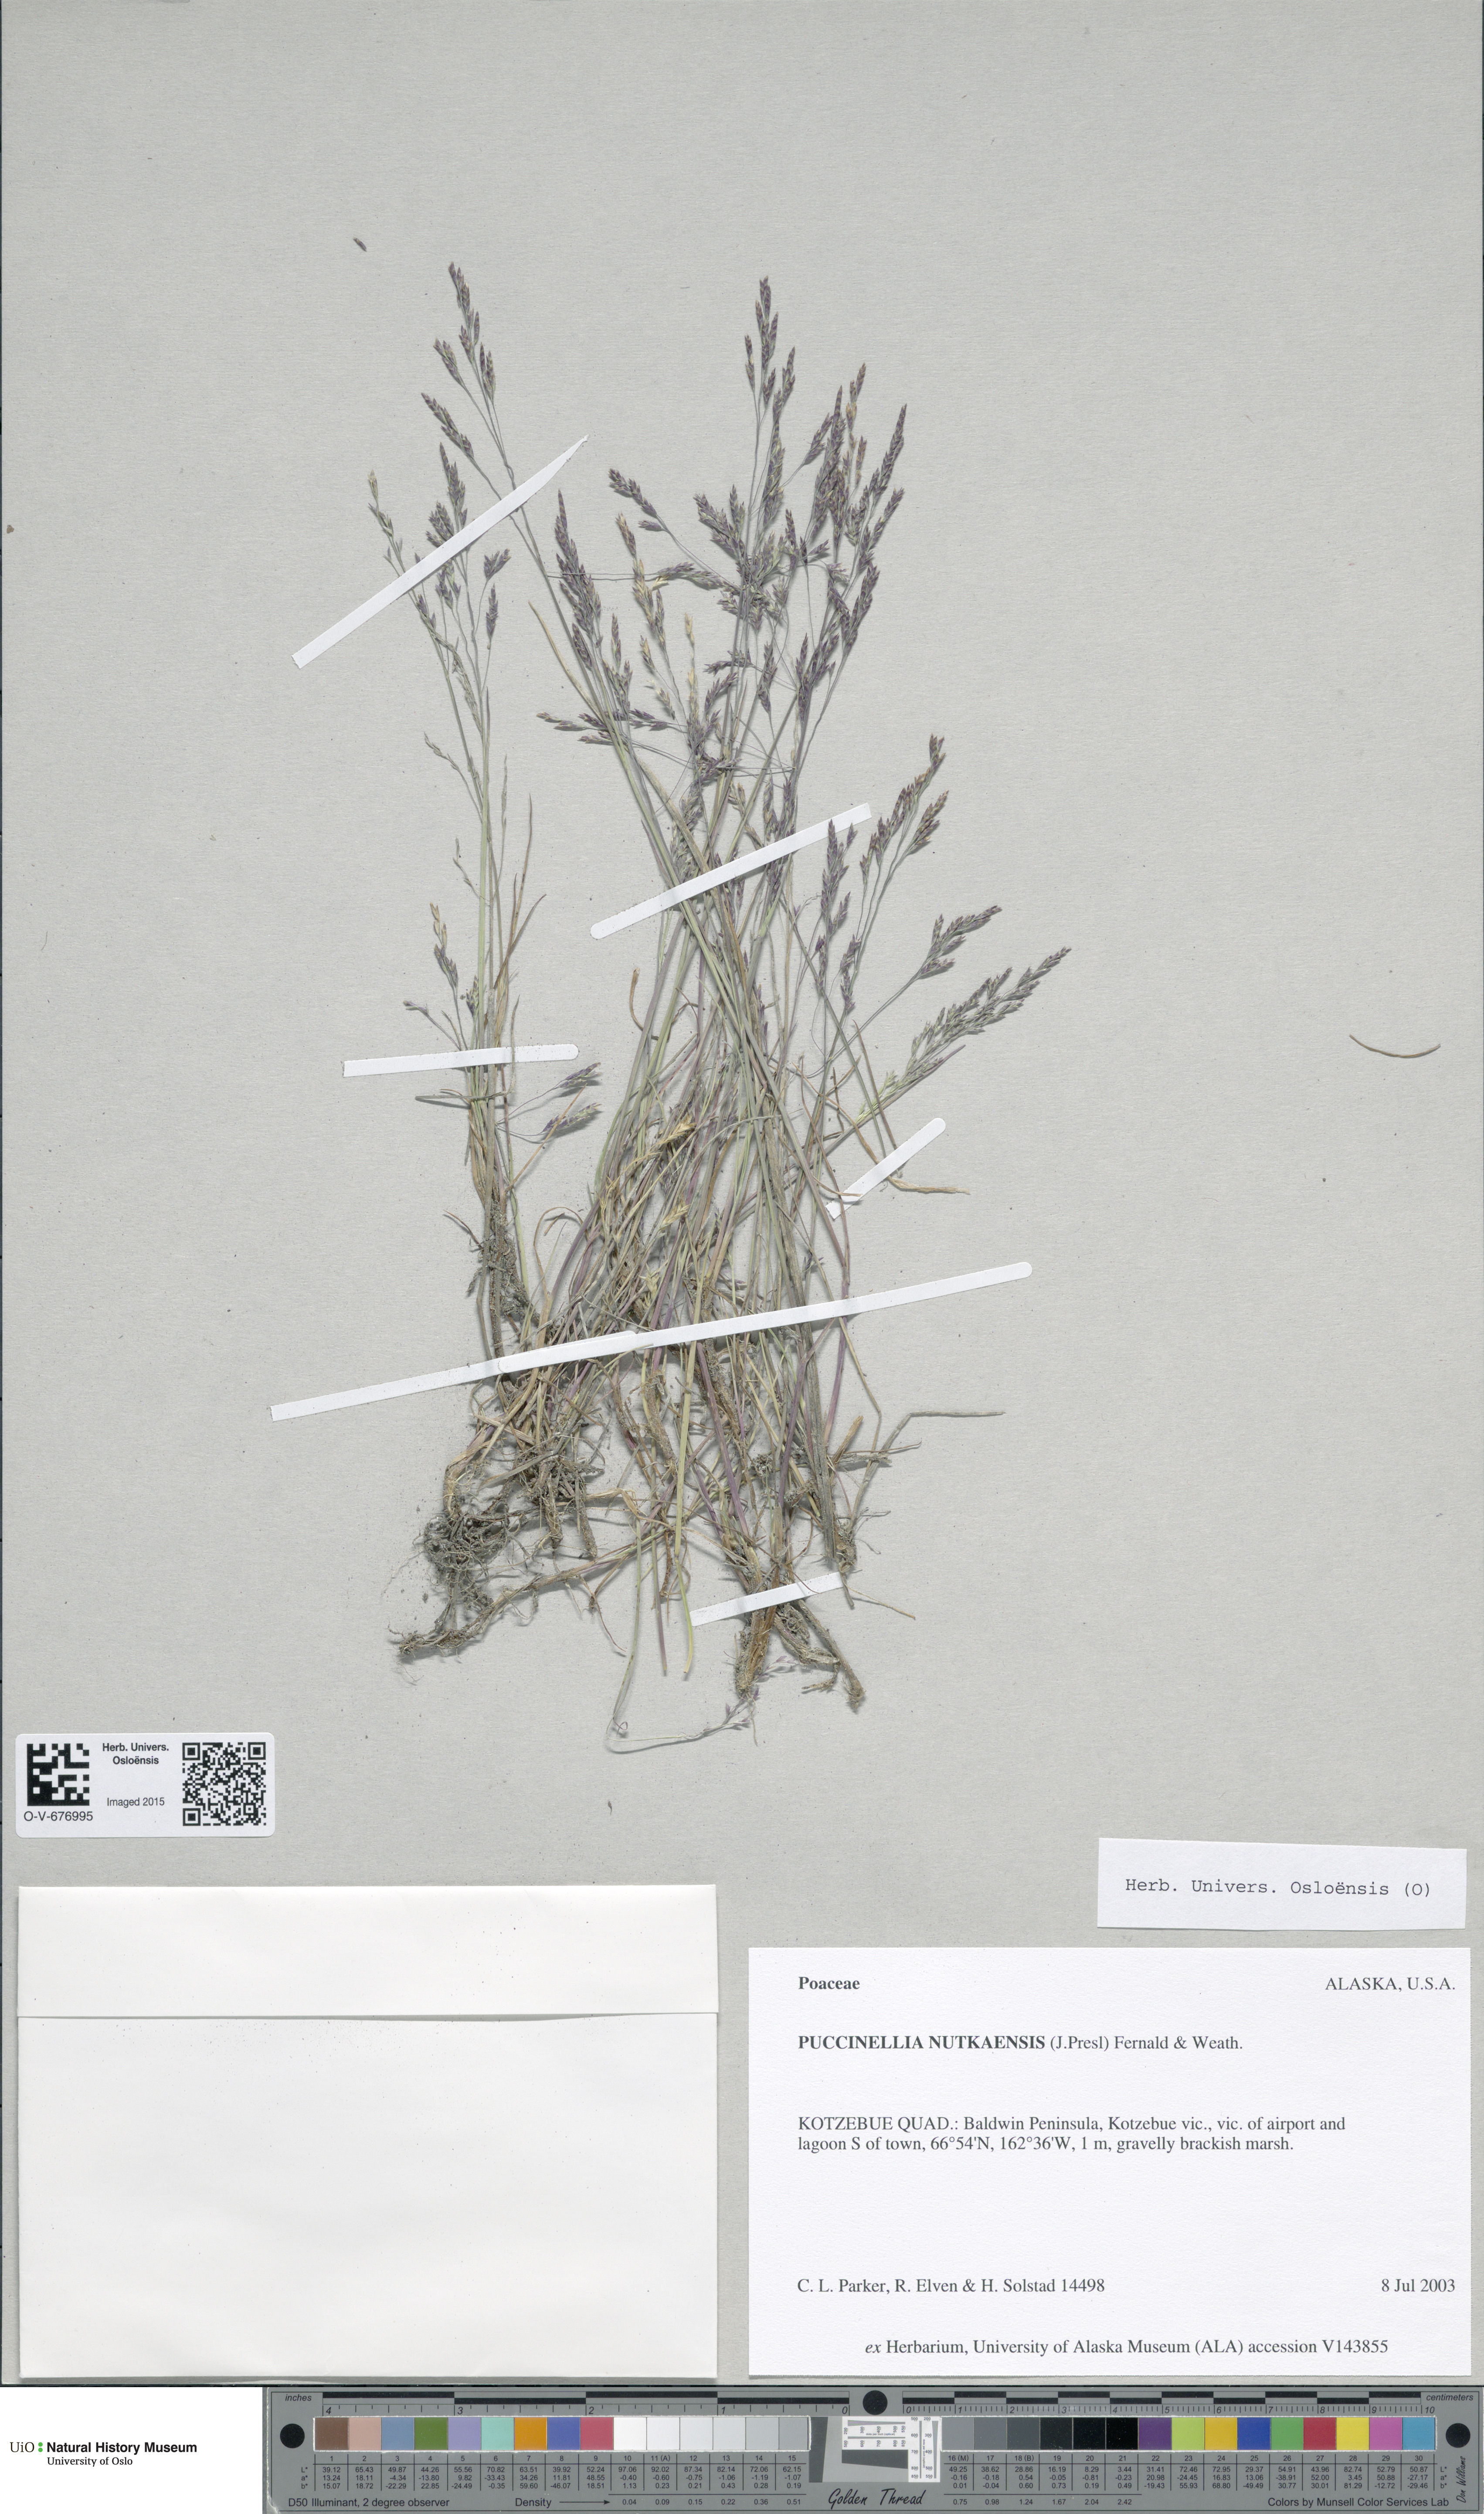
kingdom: Plantae
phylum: Tracheophyta
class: Liliopsida
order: Poales
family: Poaceae
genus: Puccinellia
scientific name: Puccinellia nutkaensis
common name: Nootka alkaligrass
